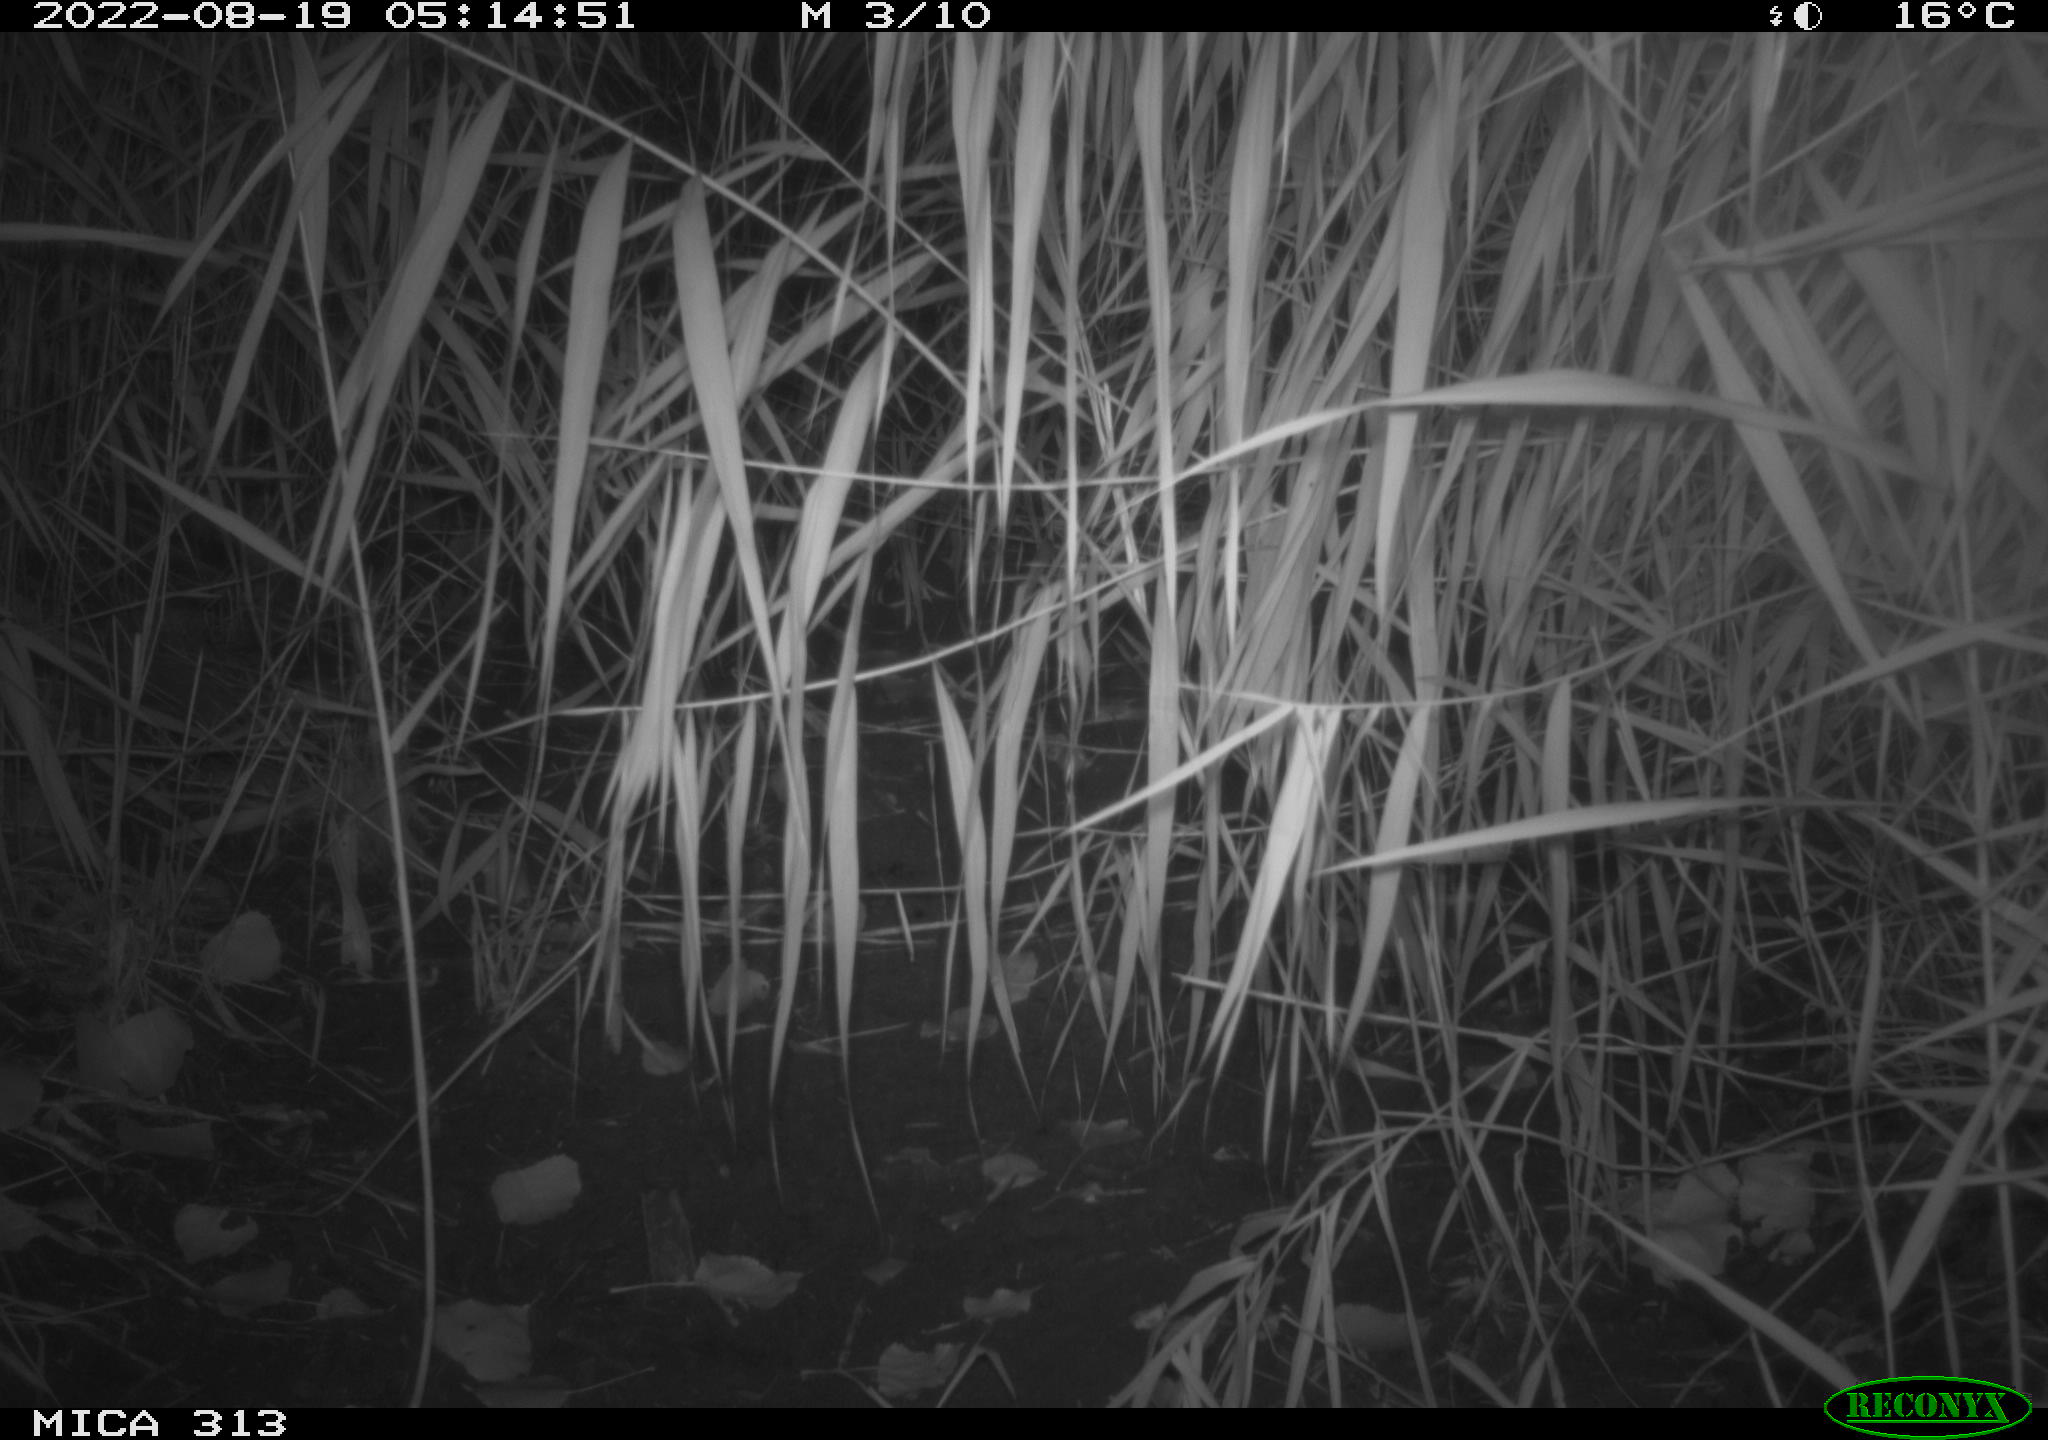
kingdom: Animalia
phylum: Chordata
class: Mammalia
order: Rodentia
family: Muridae
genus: Rattus
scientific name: Rattus norvegicus
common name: Brown rat
